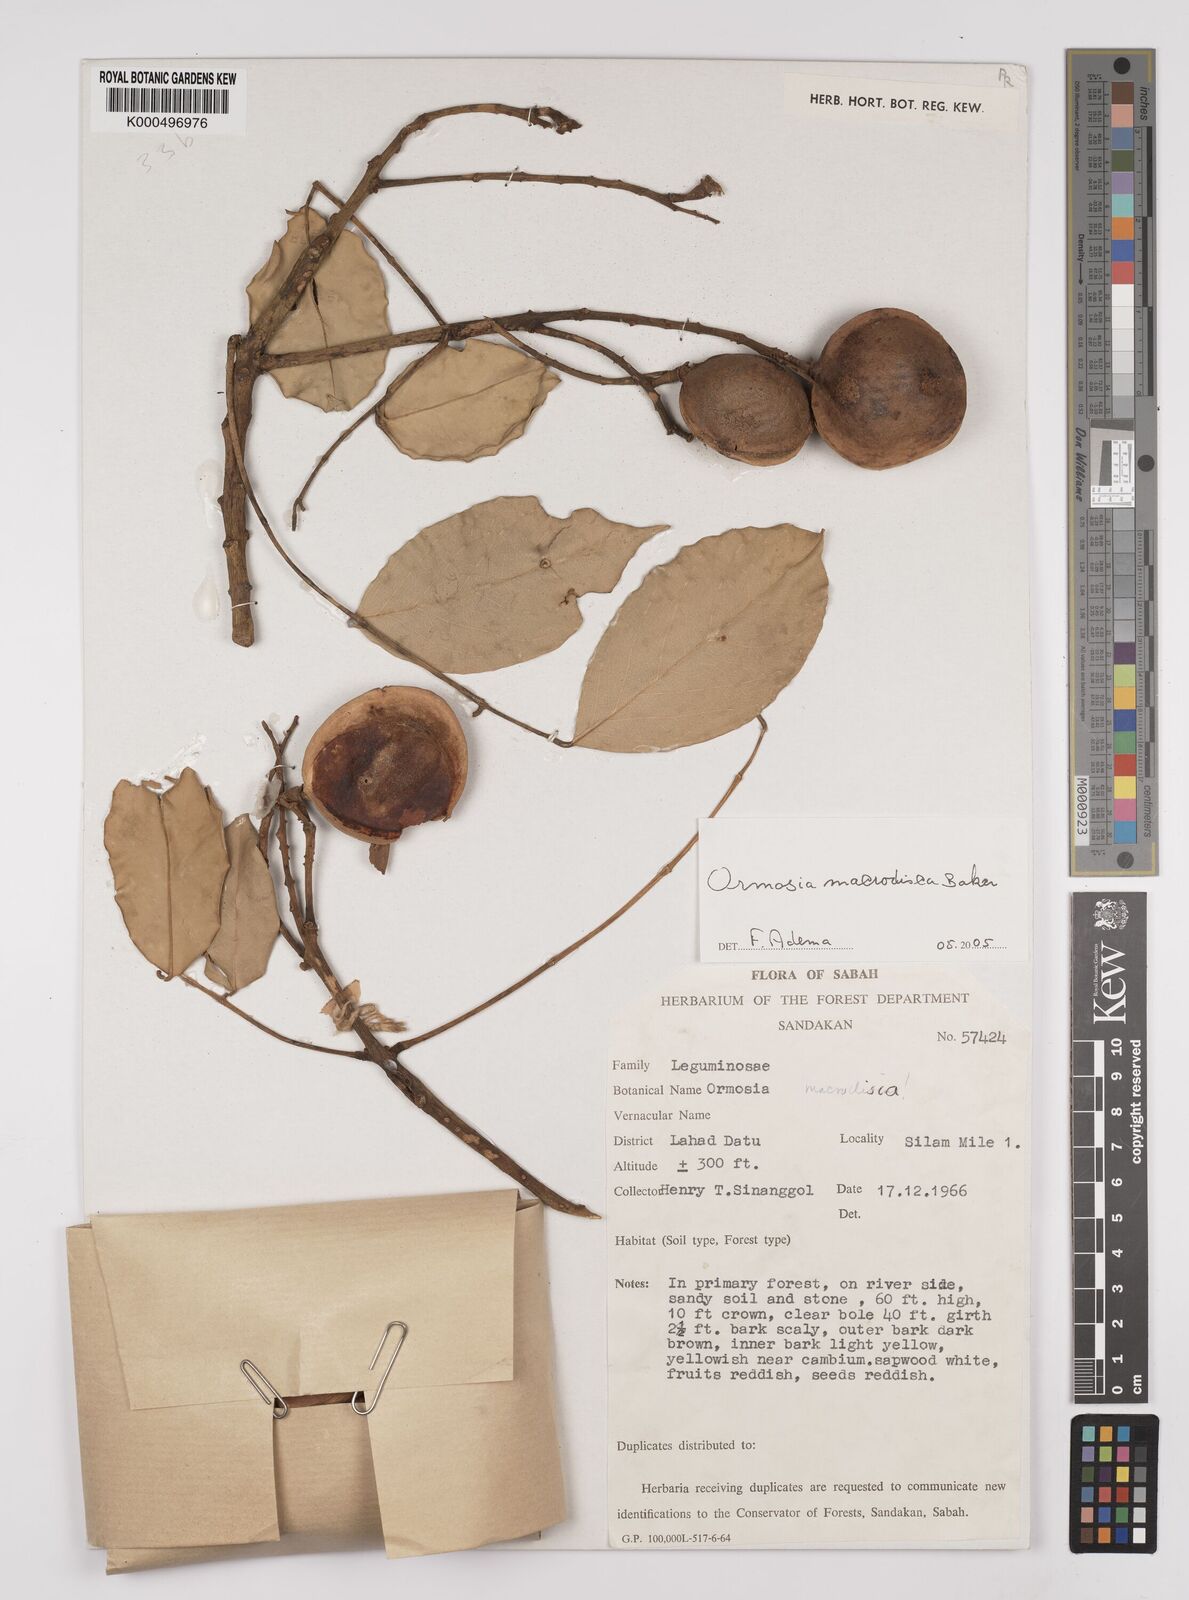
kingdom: Plantae
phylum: Tracheophyta
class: Magnoliopsida
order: Fabales
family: Fabaceae
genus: Ormosia
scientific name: Ormosia macrodisca
